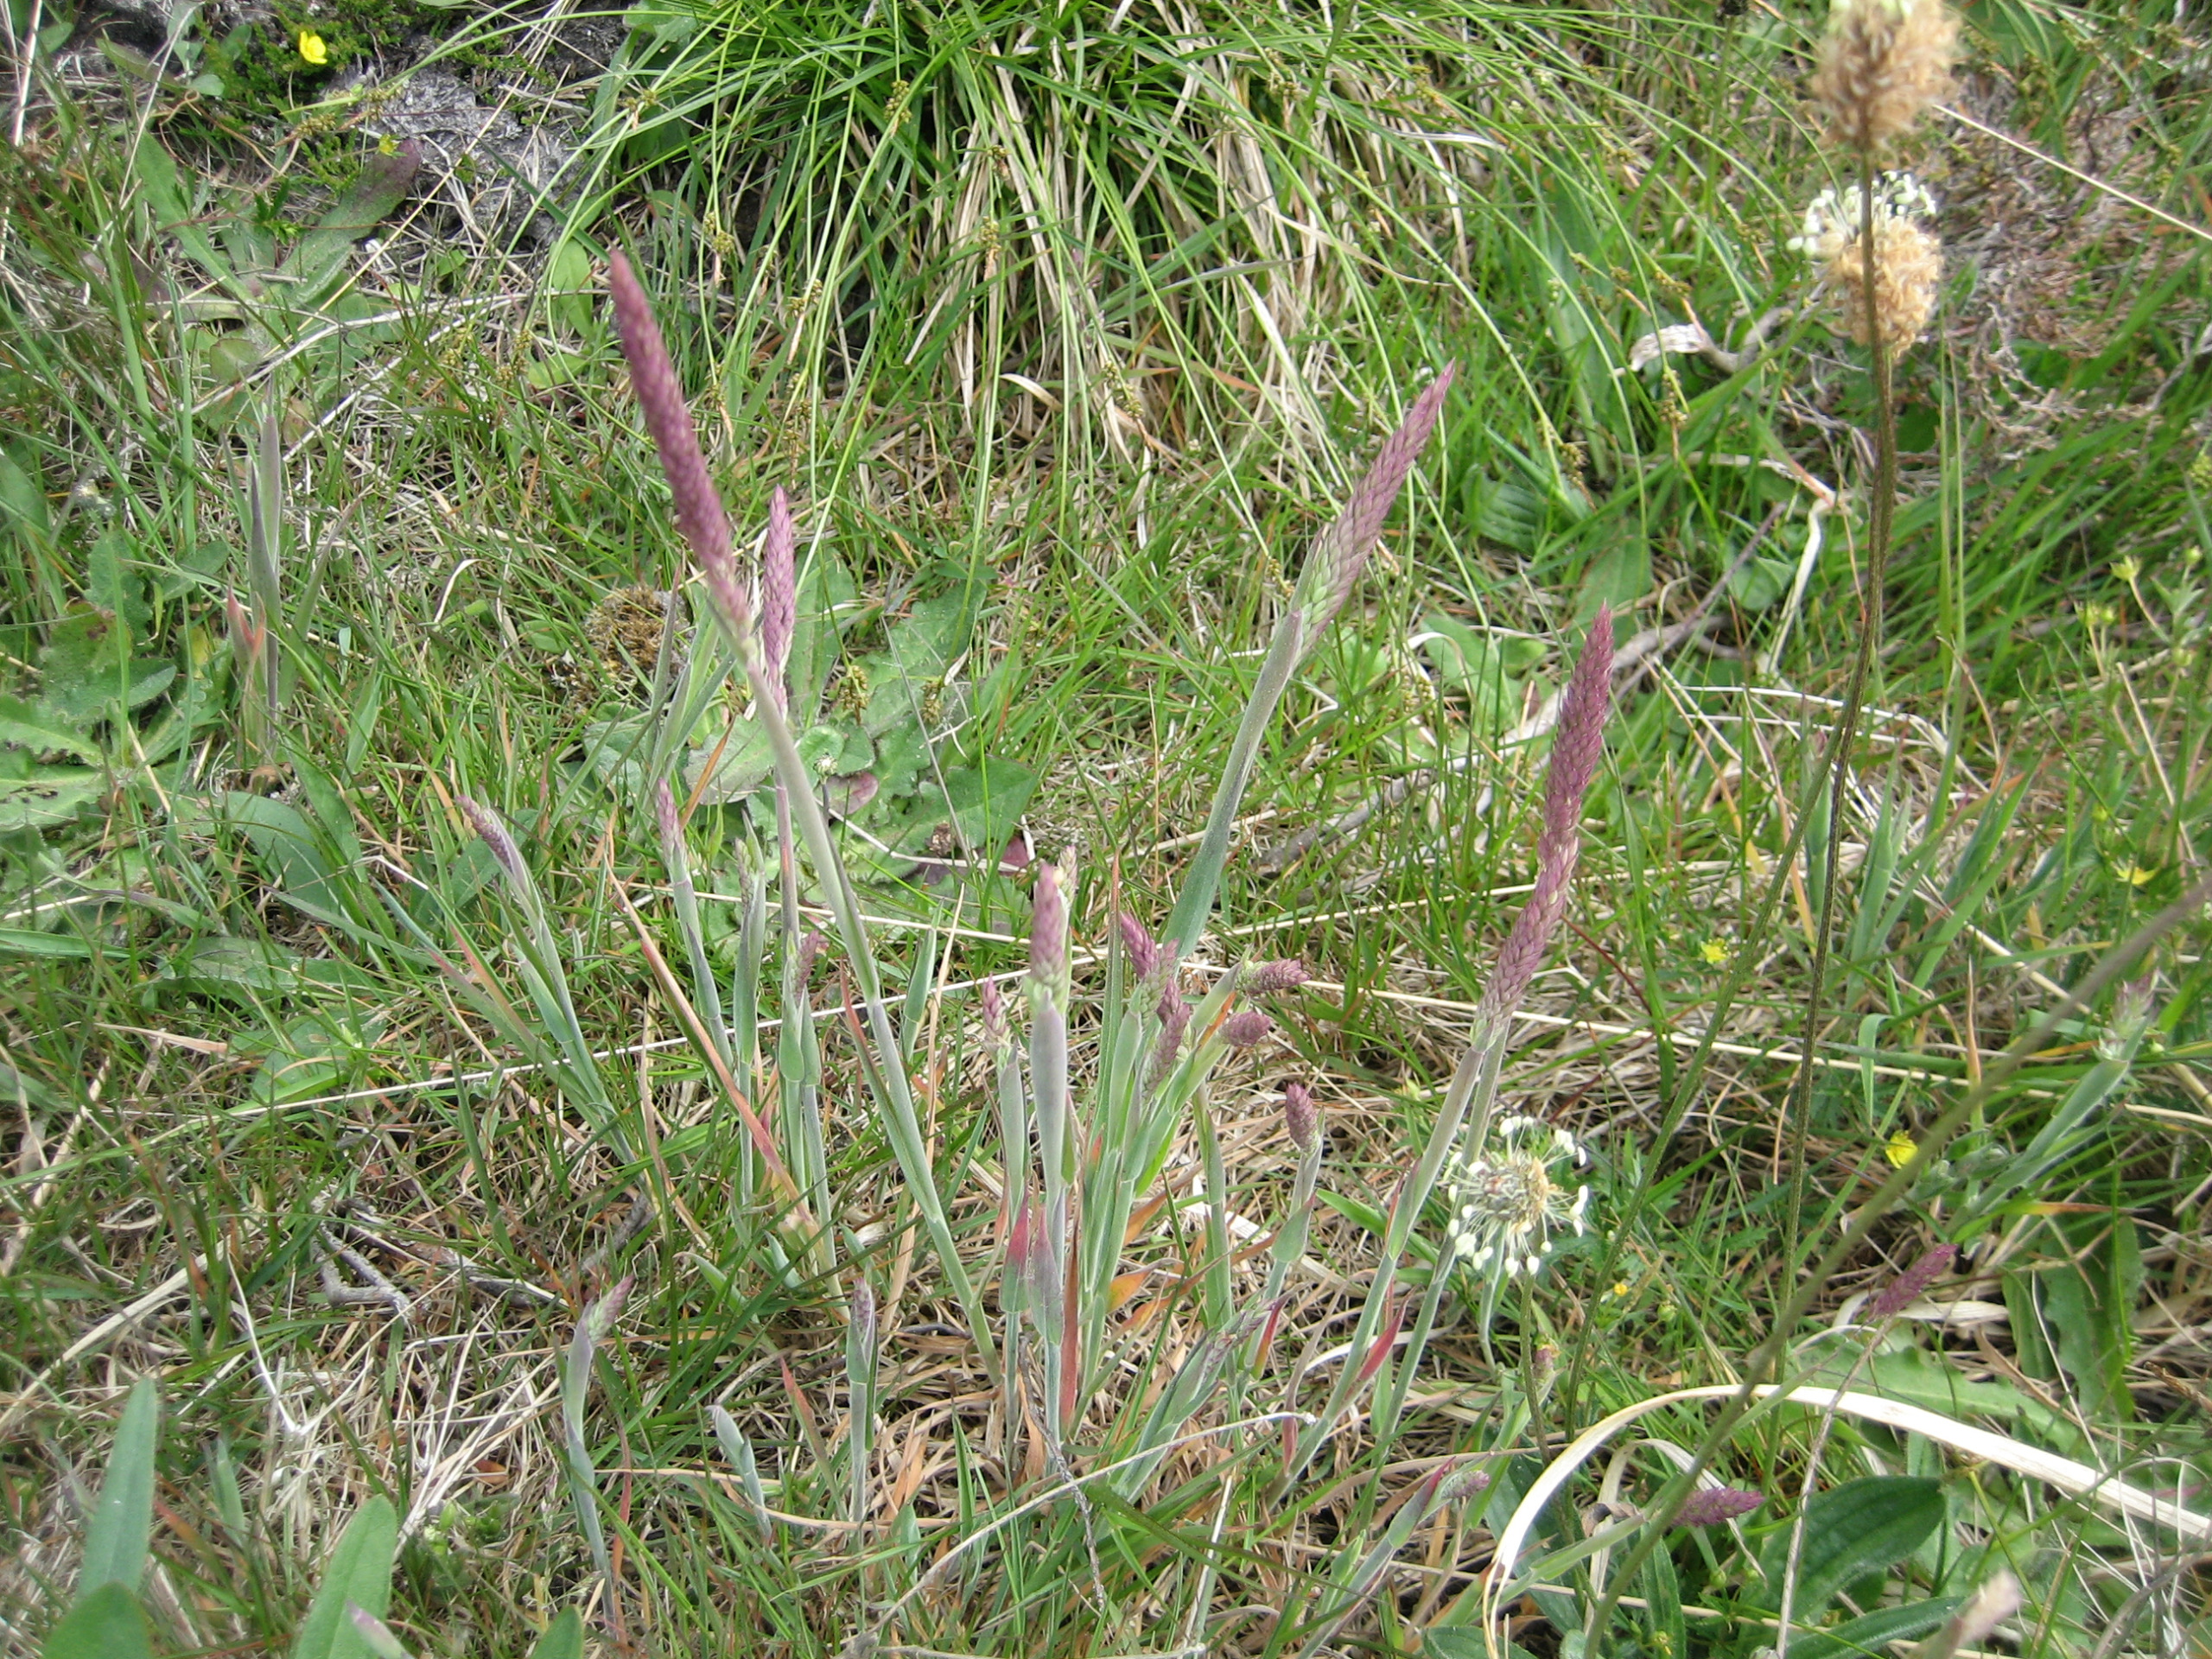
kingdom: Plantae
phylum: Tracheophyta
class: Liliopsida
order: Poales
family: Poaceae
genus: Holcus
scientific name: Holcus lanatus
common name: Fløjlsgræs
